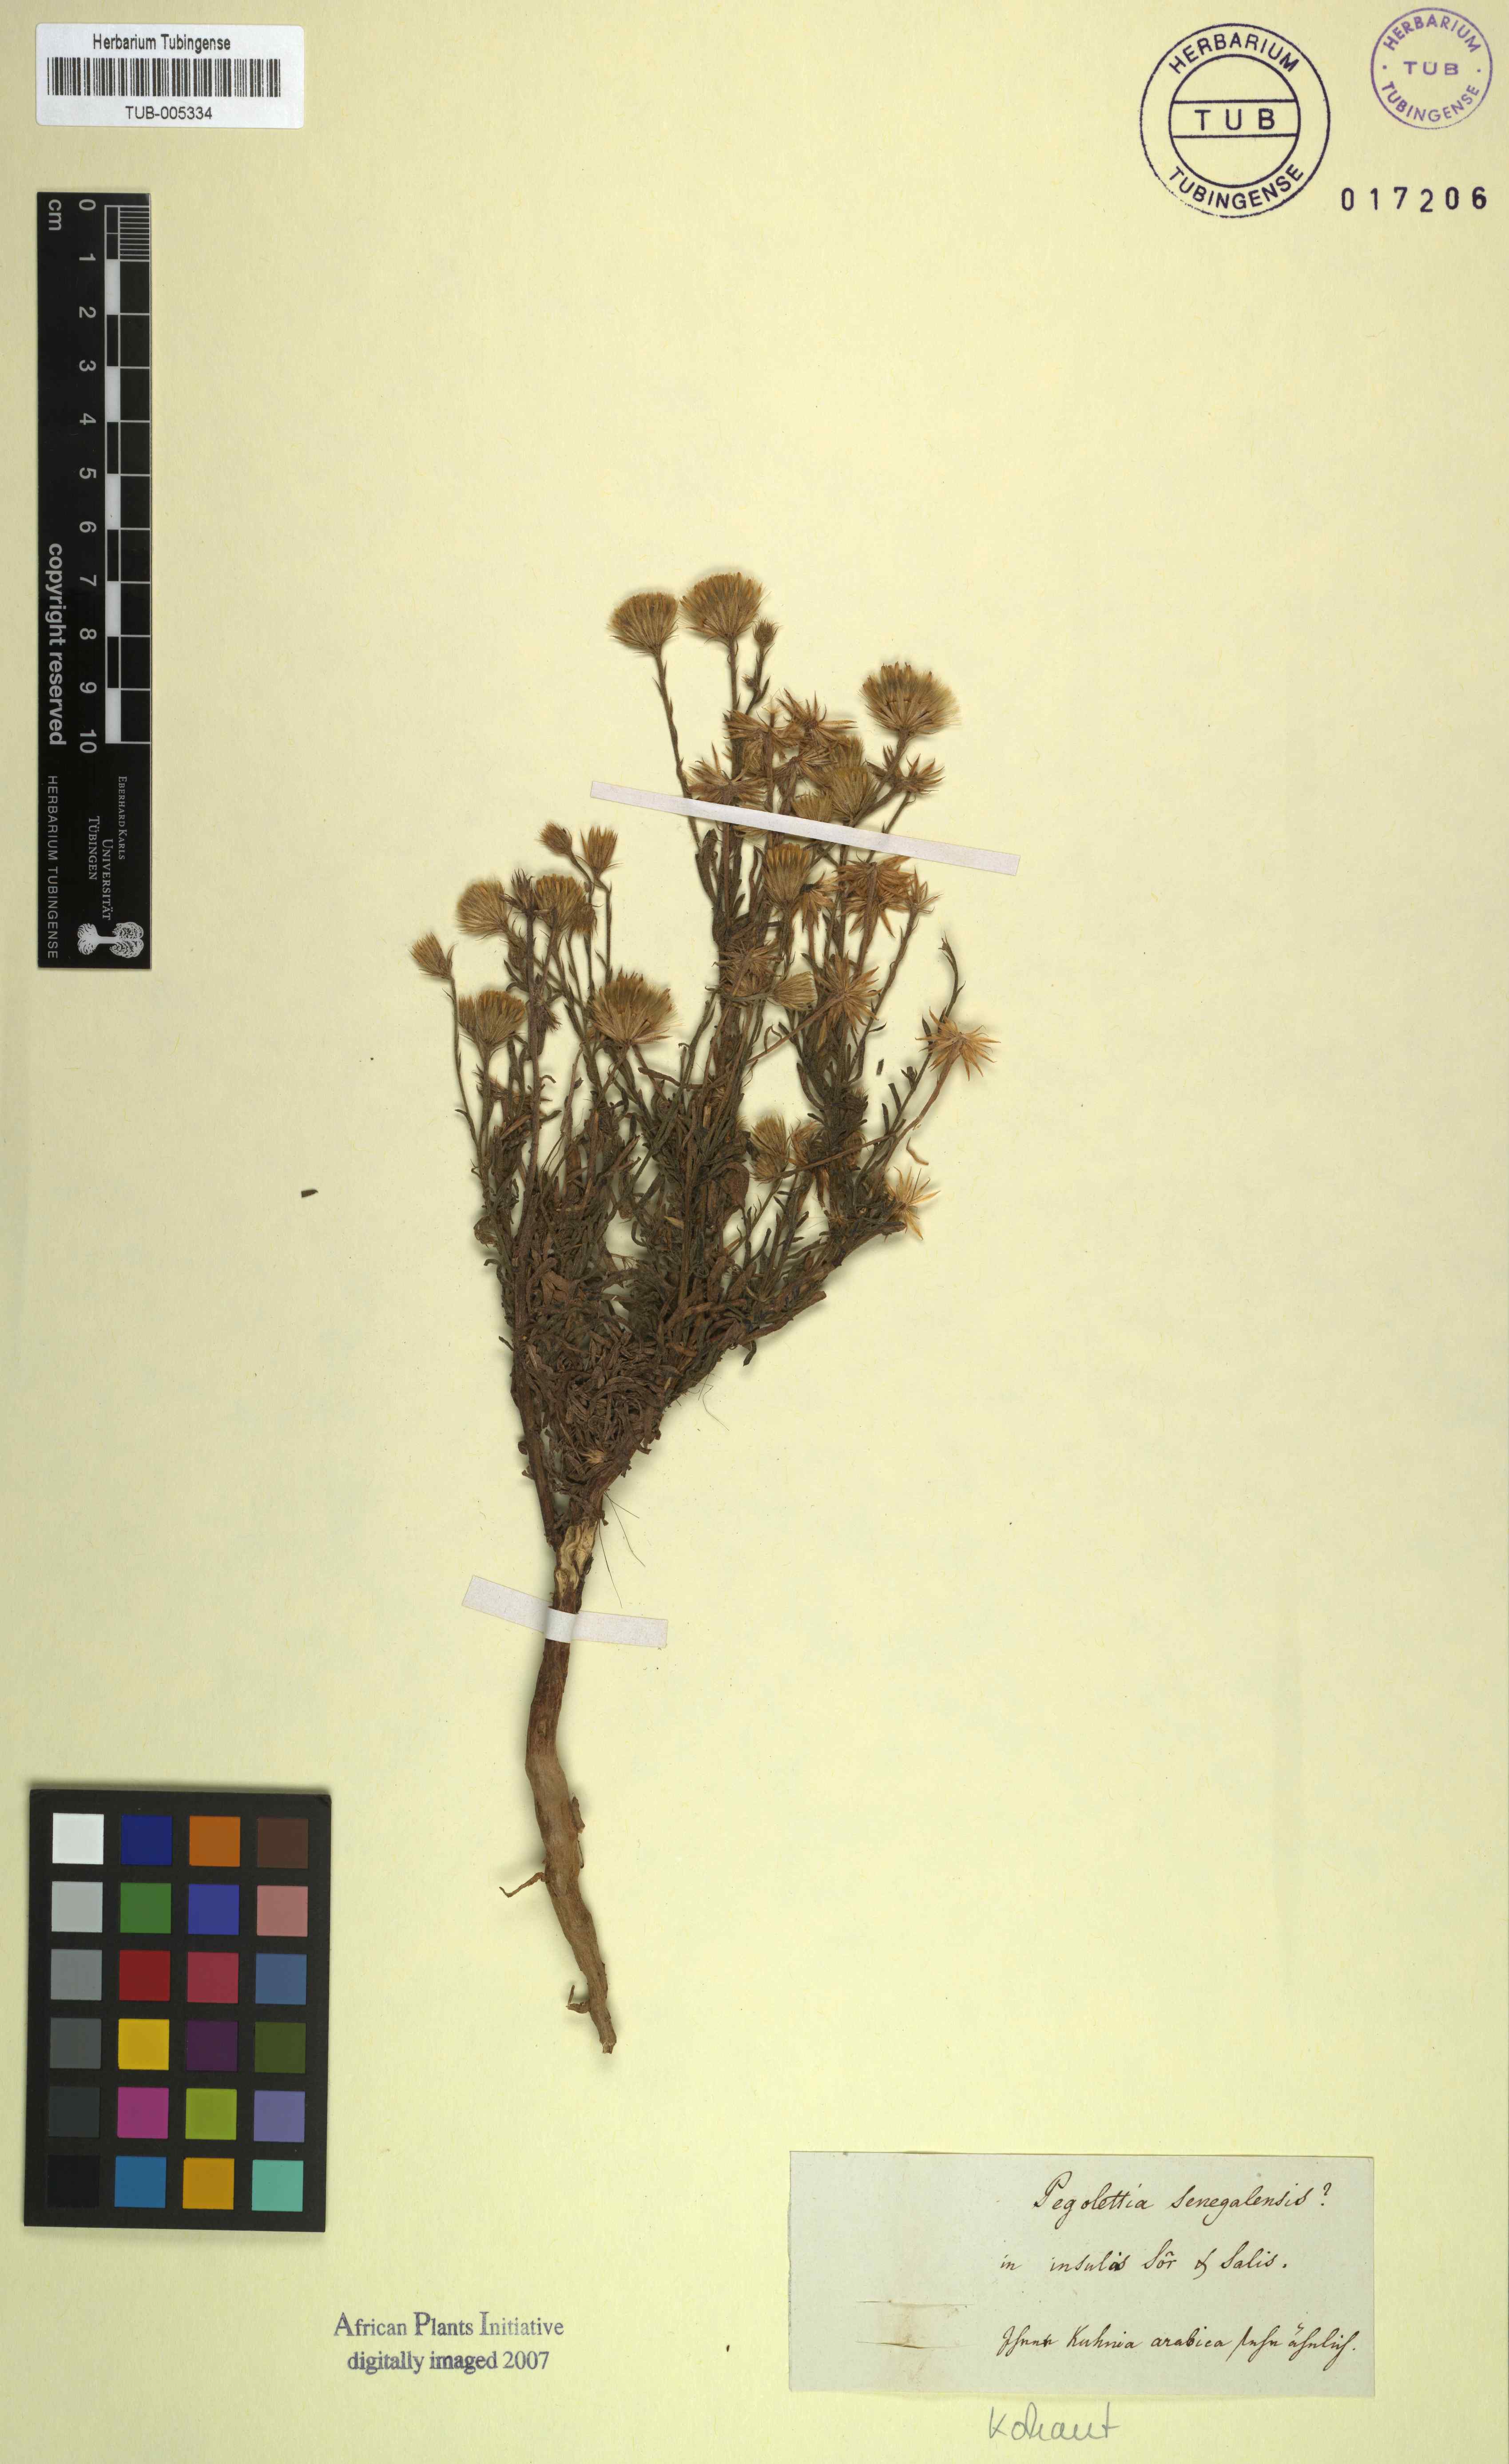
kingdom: Plantae
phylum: Tracheophyta
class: Magnoliopsida
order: Asterales
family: Asteraceae
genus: Pegolettia
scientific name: Pegolettia senegalensis
